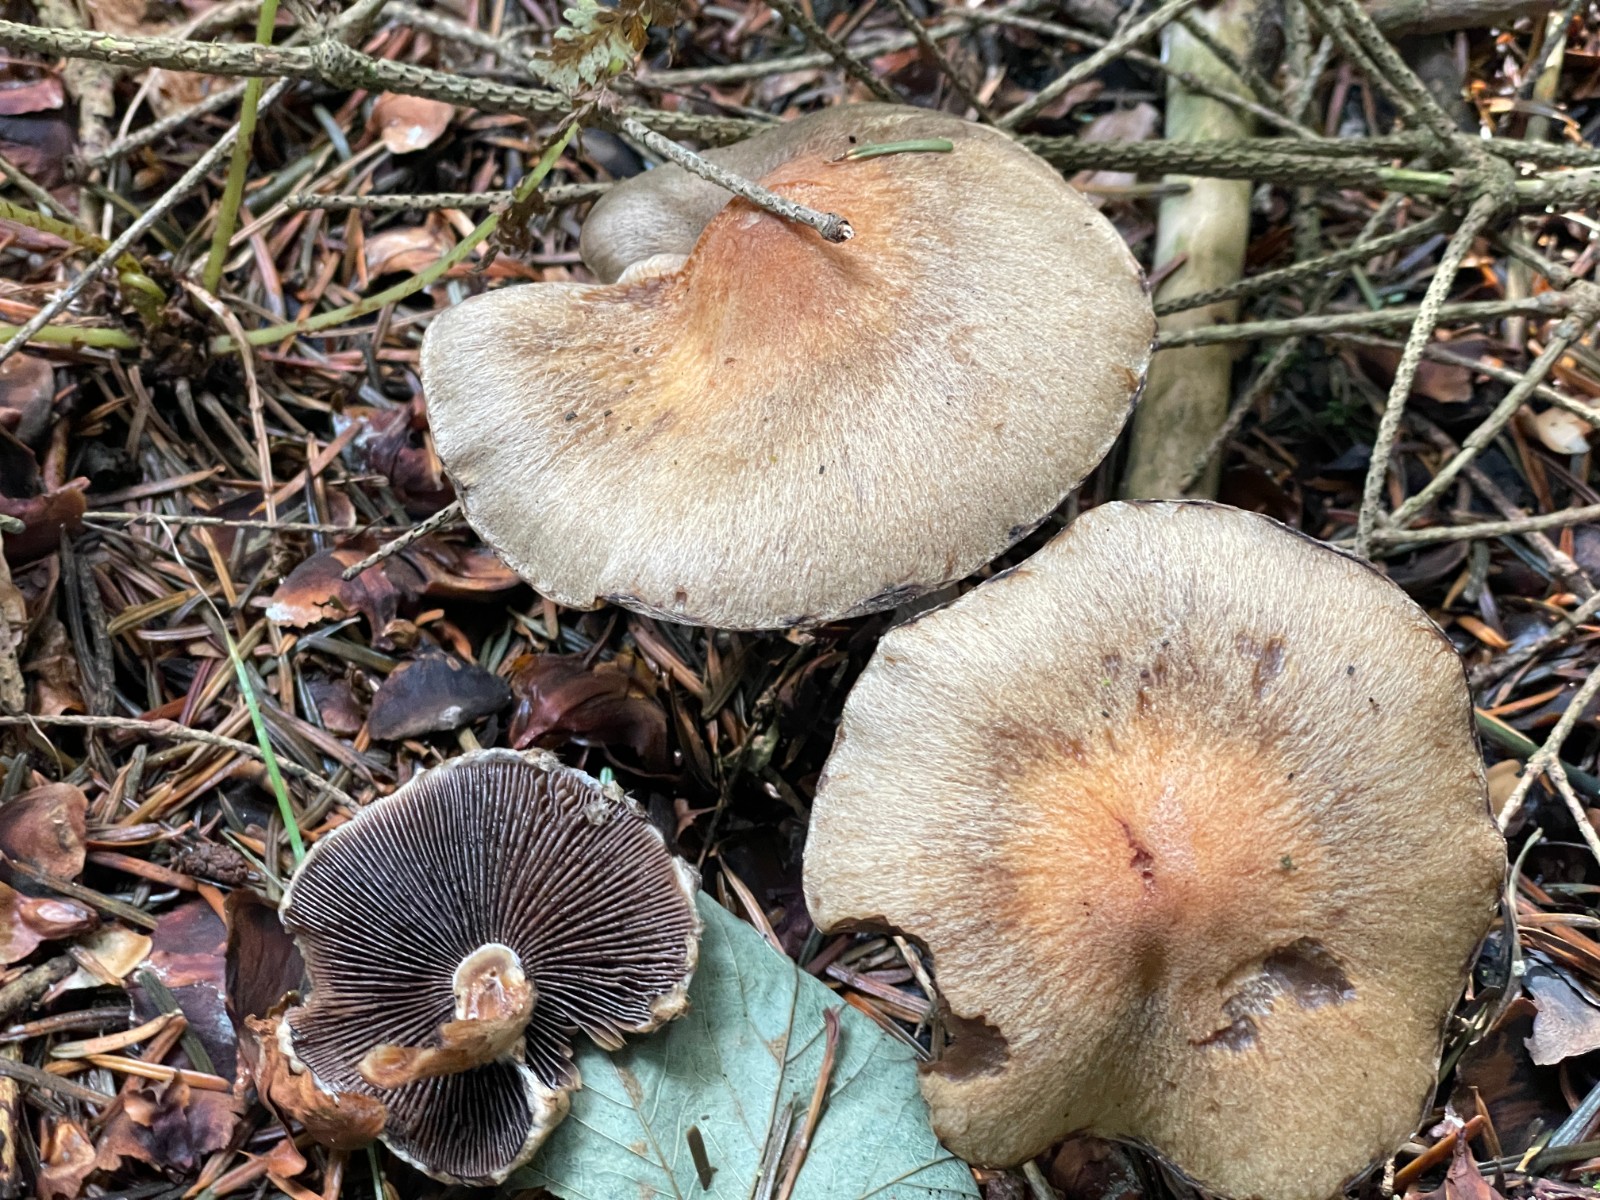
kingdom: Fungi
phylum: Basidiomycota
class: Agaricomycetes
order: Agaricales
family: Psathyrellaceae
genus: Lacrymaria
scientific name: Lacrymaria lacrymabunda
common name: grædende mørkhat
